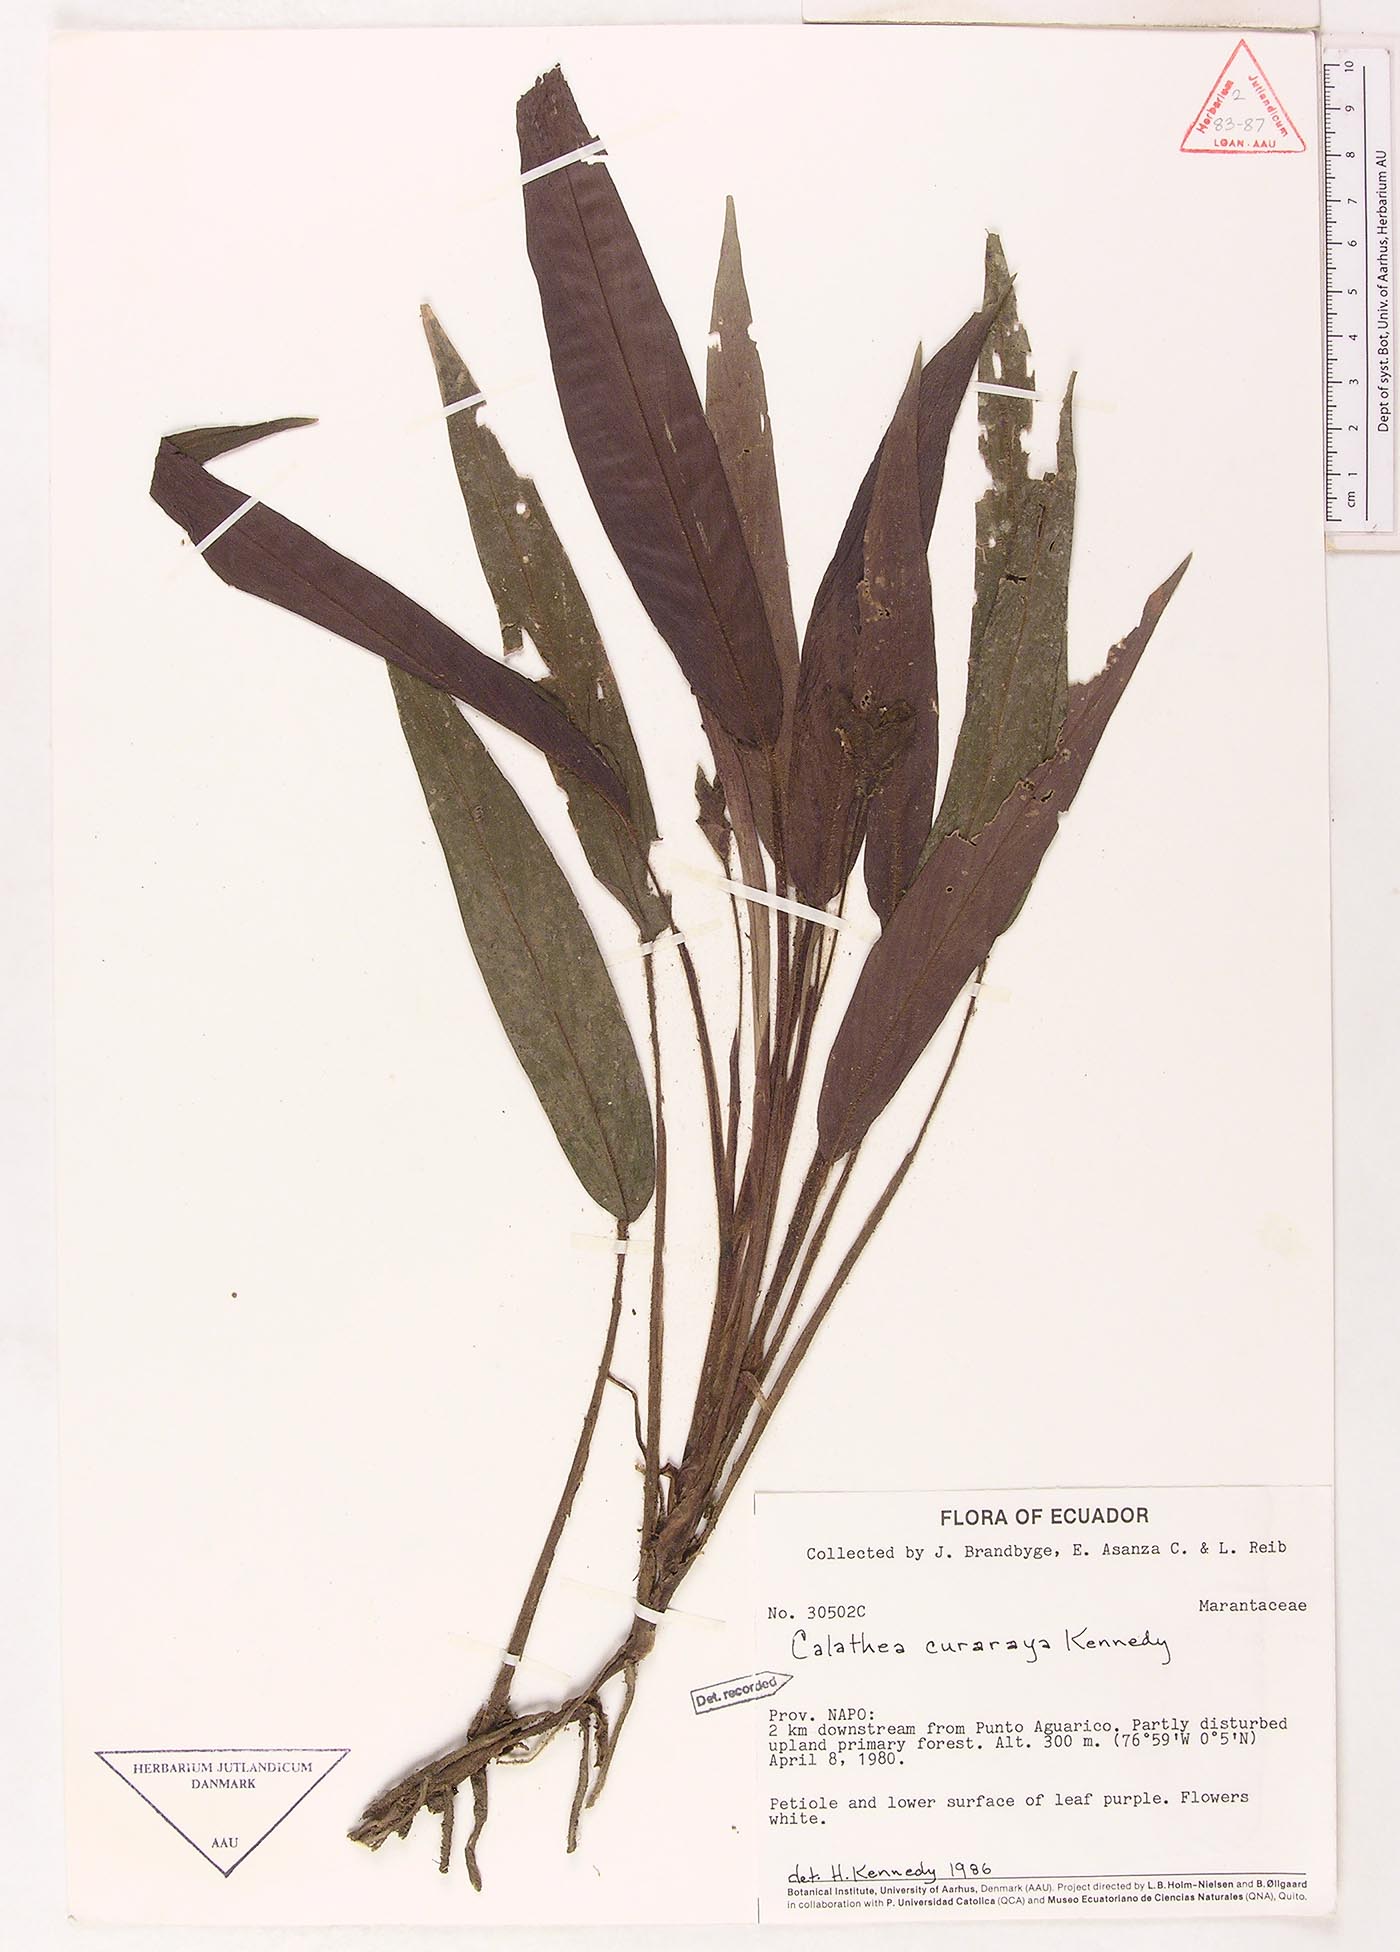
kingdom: Plantae
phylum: Tracheophyta
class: Liliopsida
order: Zingiberales
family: Marantaceae
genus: Goeppertia
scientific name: Goeppertia curaraya
